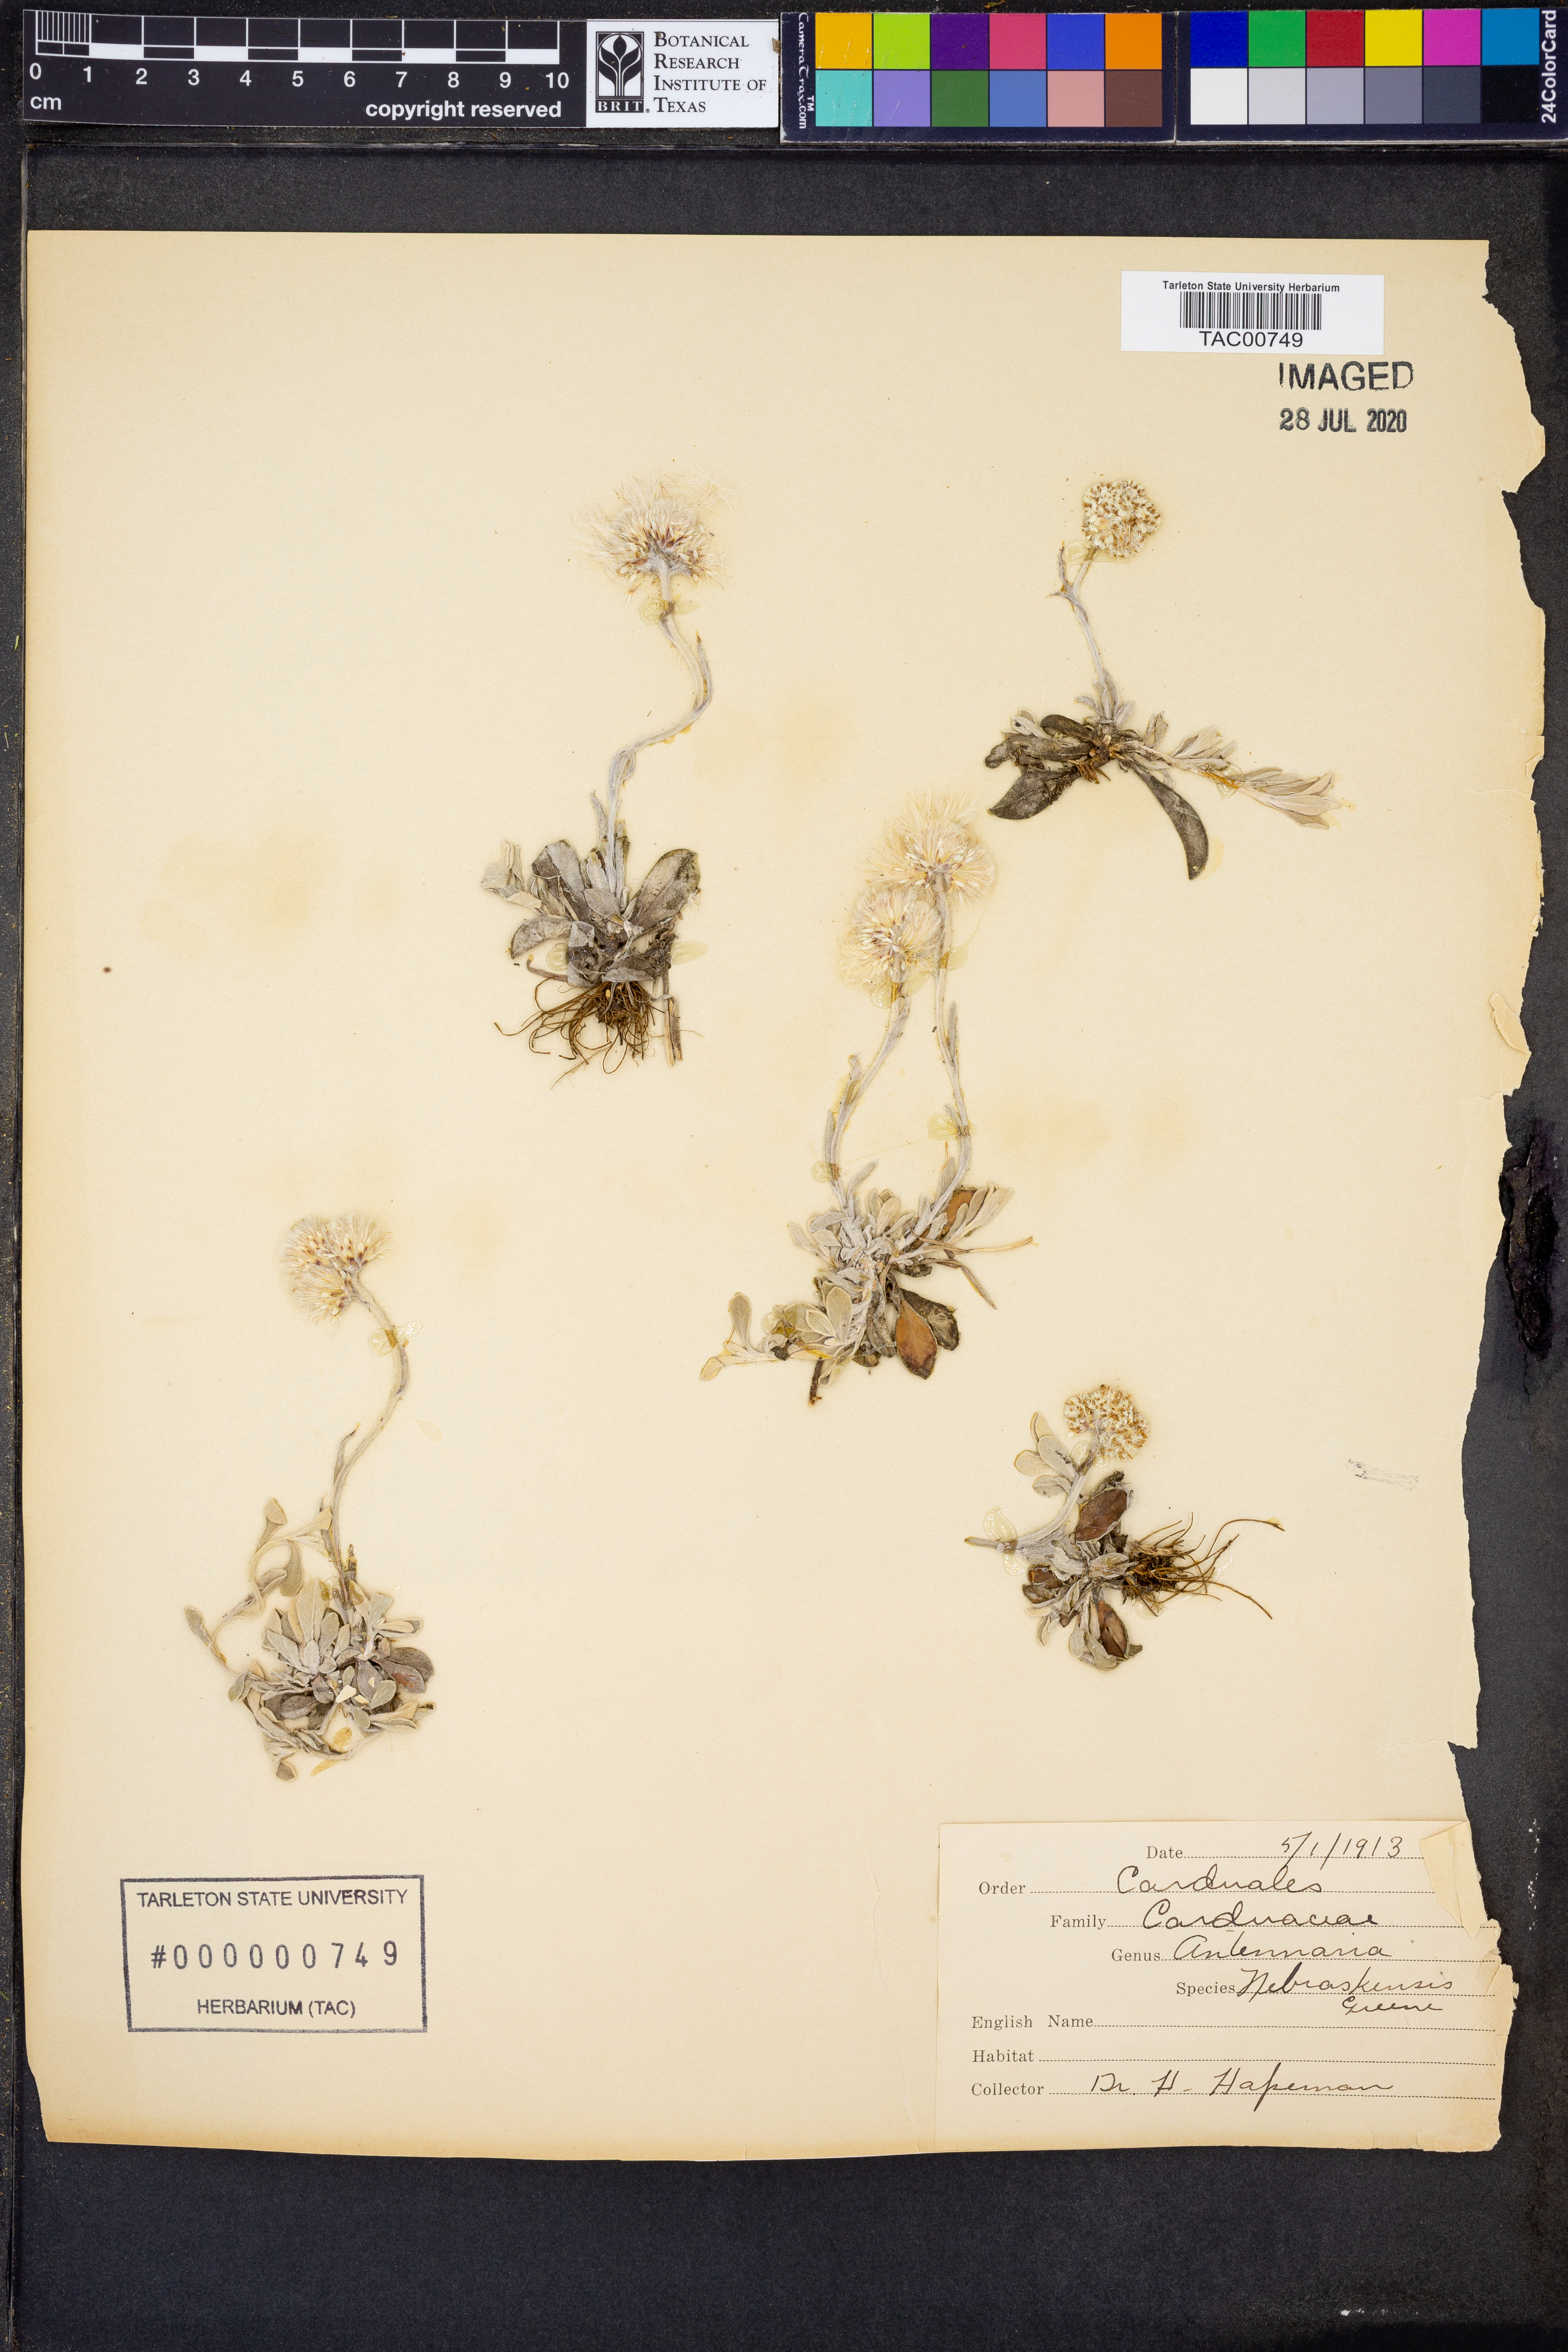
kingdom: Plantae
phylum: Tracheophyta
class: Magnoliopsida
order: Asterales
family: Asteraceae
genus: Antennaria
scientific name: Antennaria neglecta
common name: Field pussytoes
